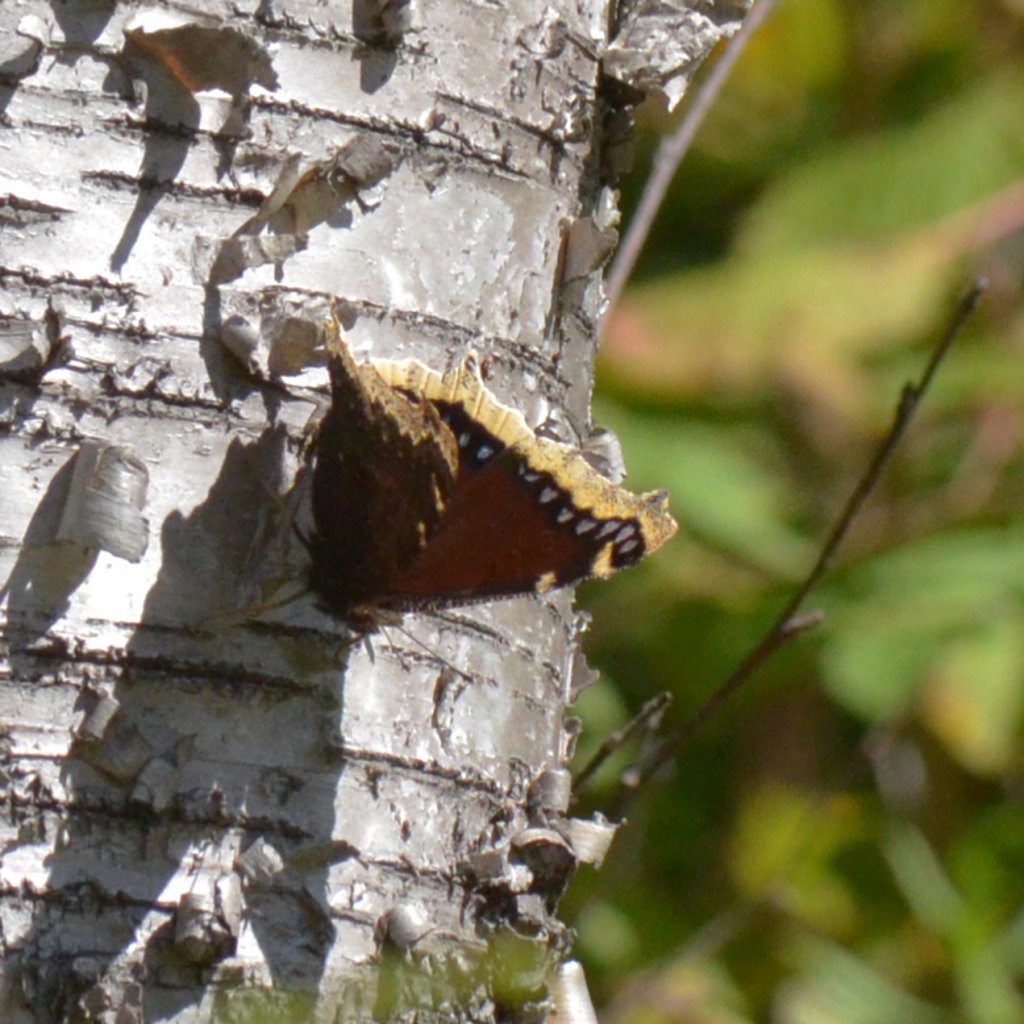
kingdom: Animalia
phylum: Arthropoda
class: Insecta
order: Lepidoptera
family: Nymphalidae
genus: Nymphalis
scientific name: Nymphalis antiopa
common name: Mourning Cloak
